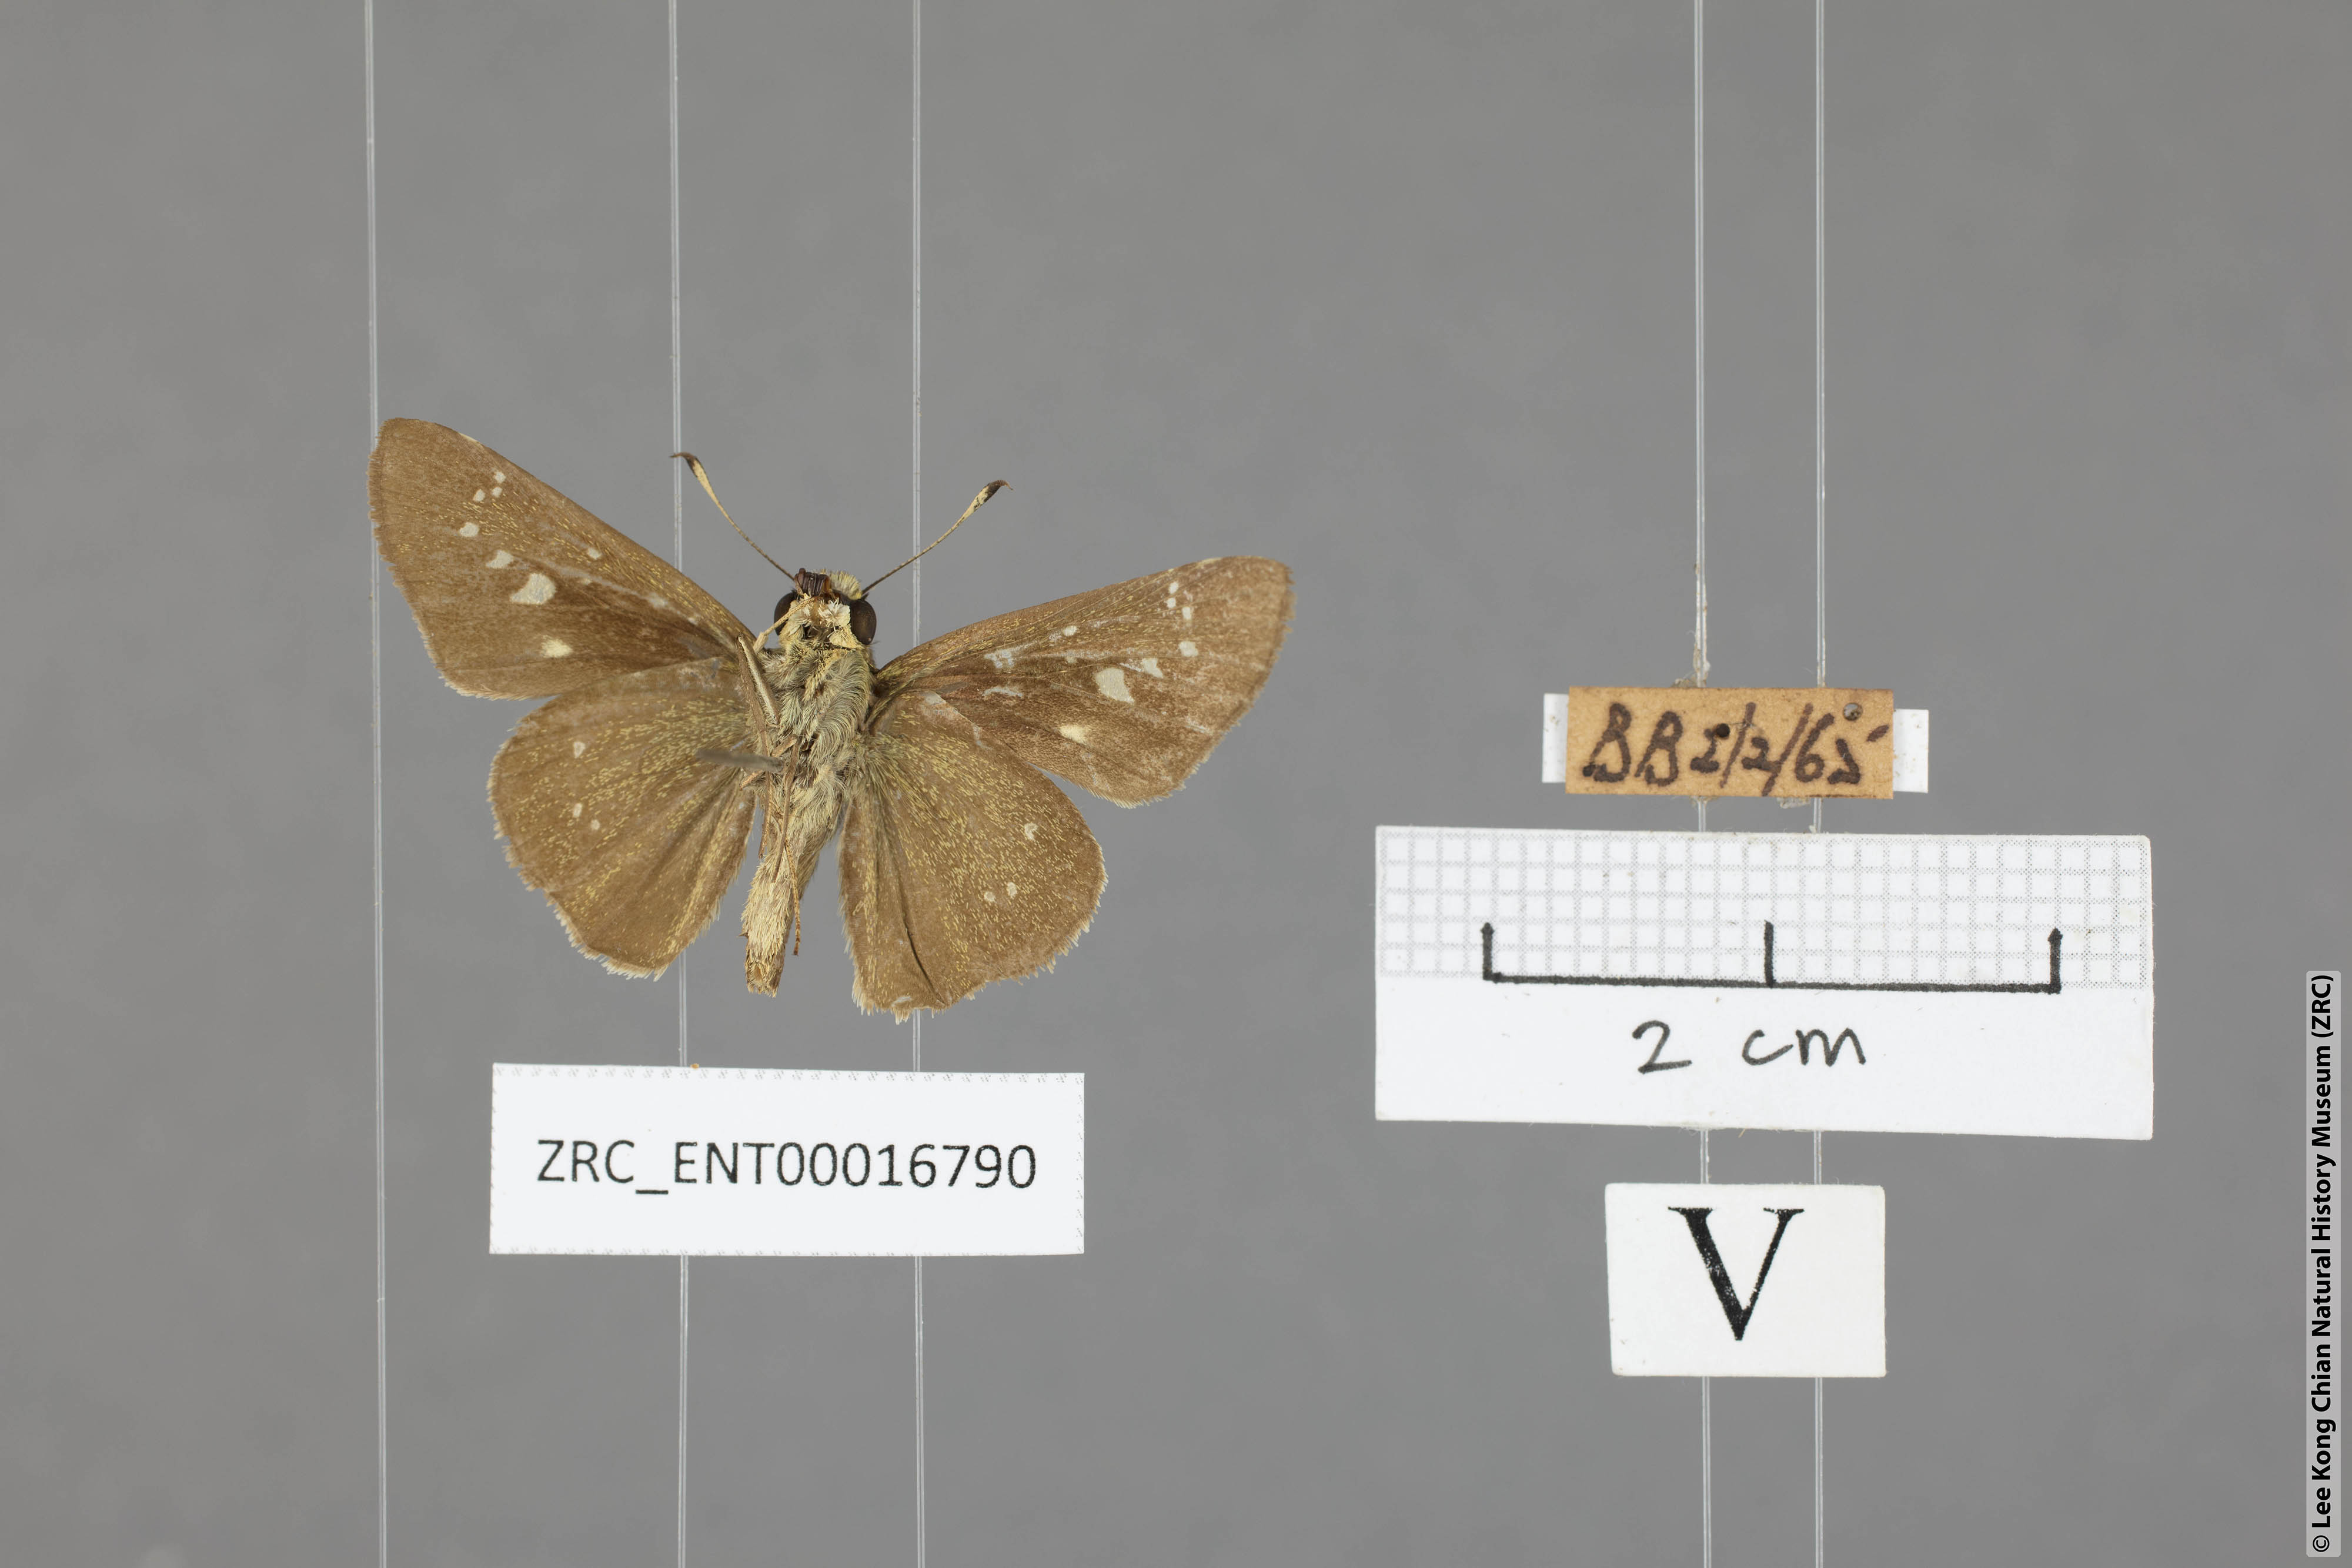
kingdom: Animalia
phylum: Arthropoda
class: Insecta
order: Lepidoptera
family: Hesperiidae
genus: Borbo
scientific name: Borbo cinnara
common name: Formosan swift
